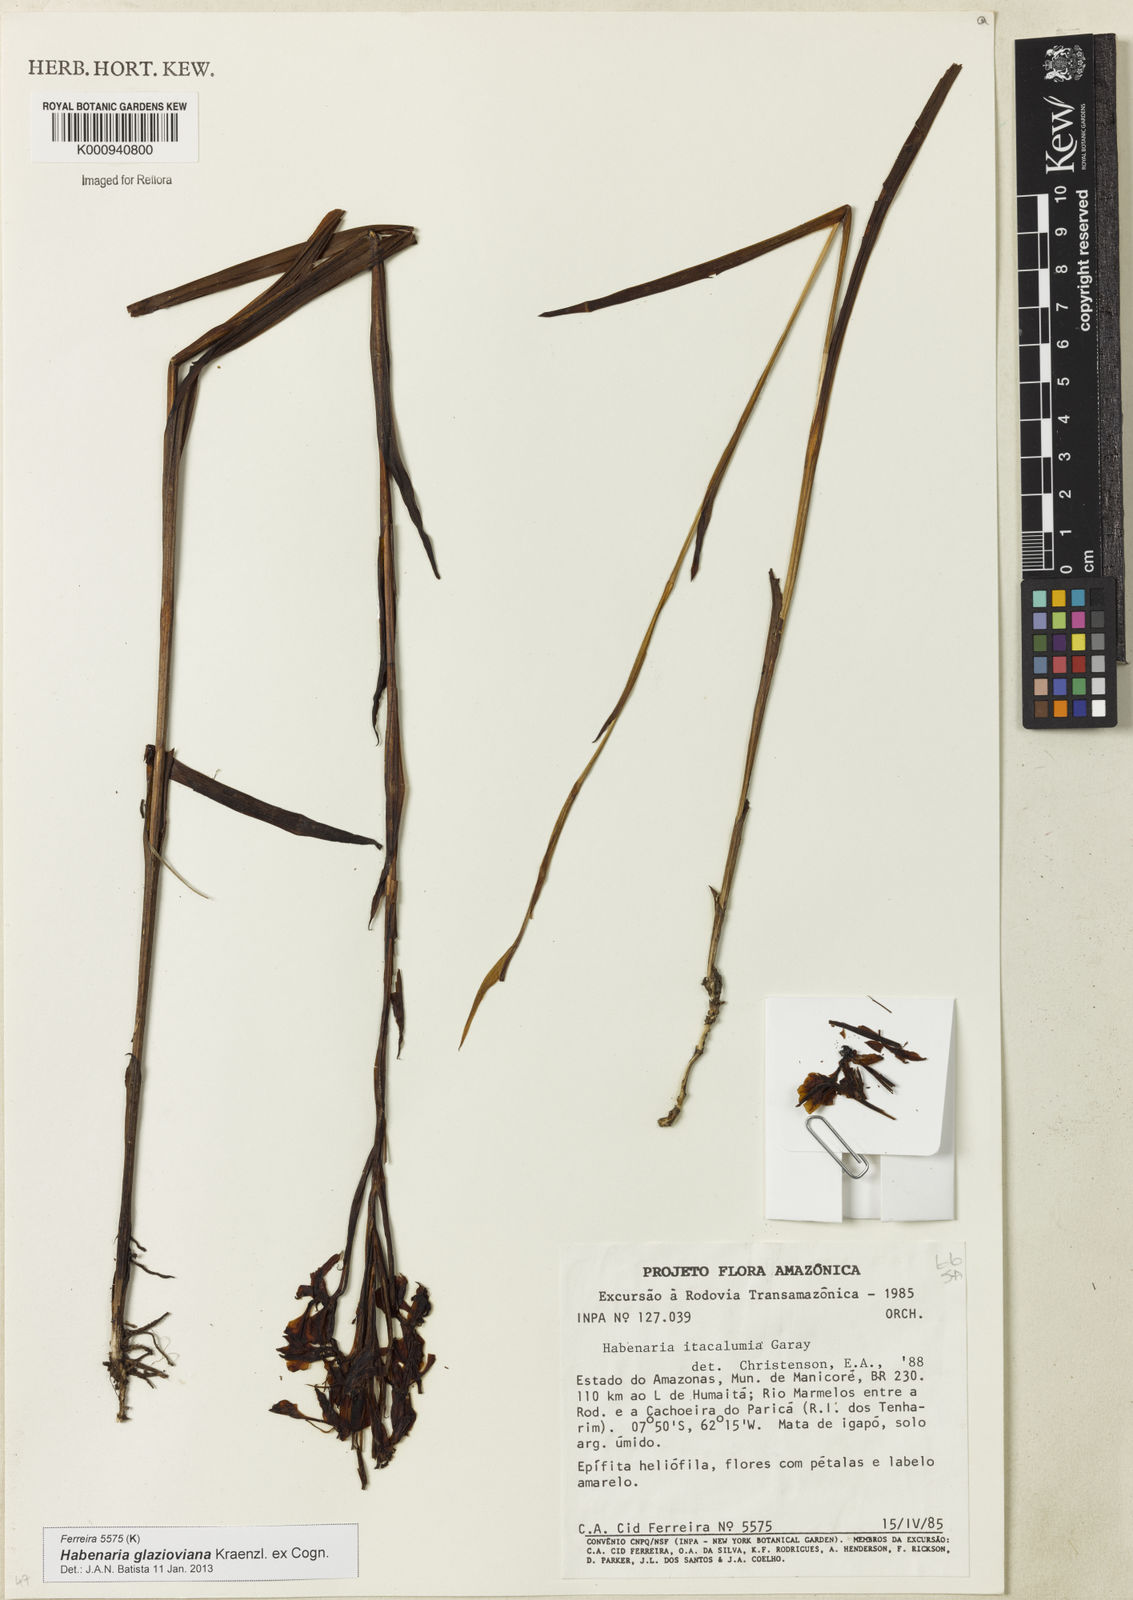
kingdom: Plantae
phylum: Tracheophyta
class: Liliopsida
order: Asparagales
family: Orchidaceae
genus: Habenaria
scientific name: Habenaria glazioviana
